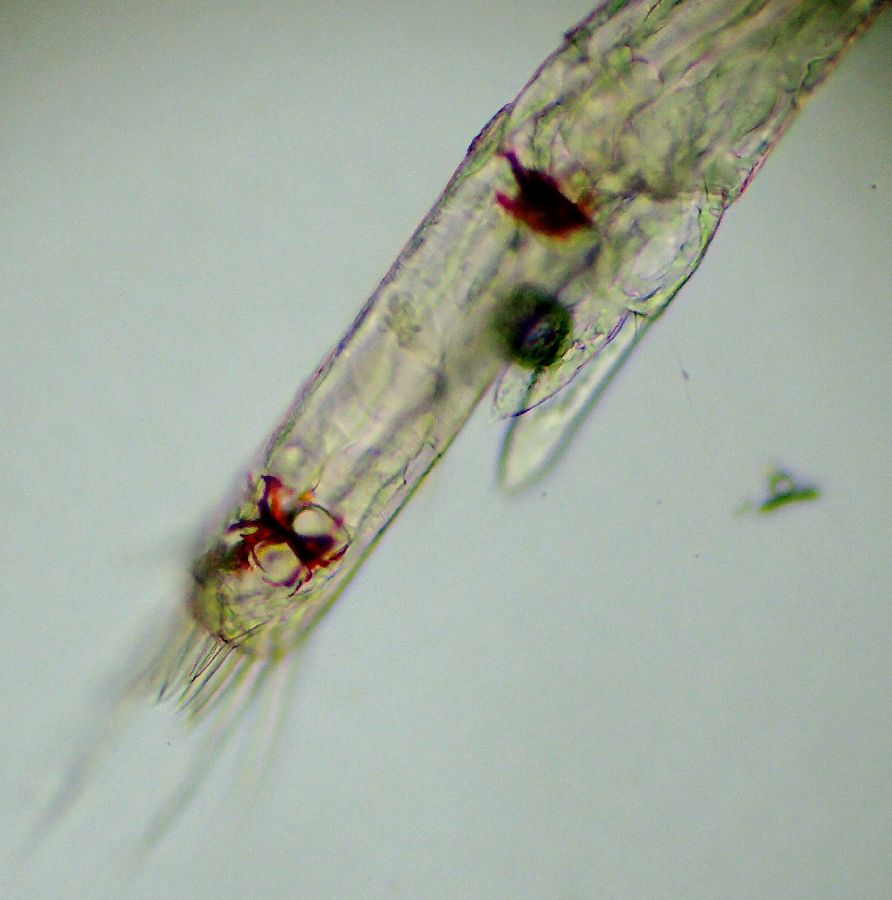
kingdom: Animalia
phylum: Arthropoda
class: Malacostraca
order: Decapoda
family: Oregoniidae
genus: Hyas
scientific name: Hyas araneus
